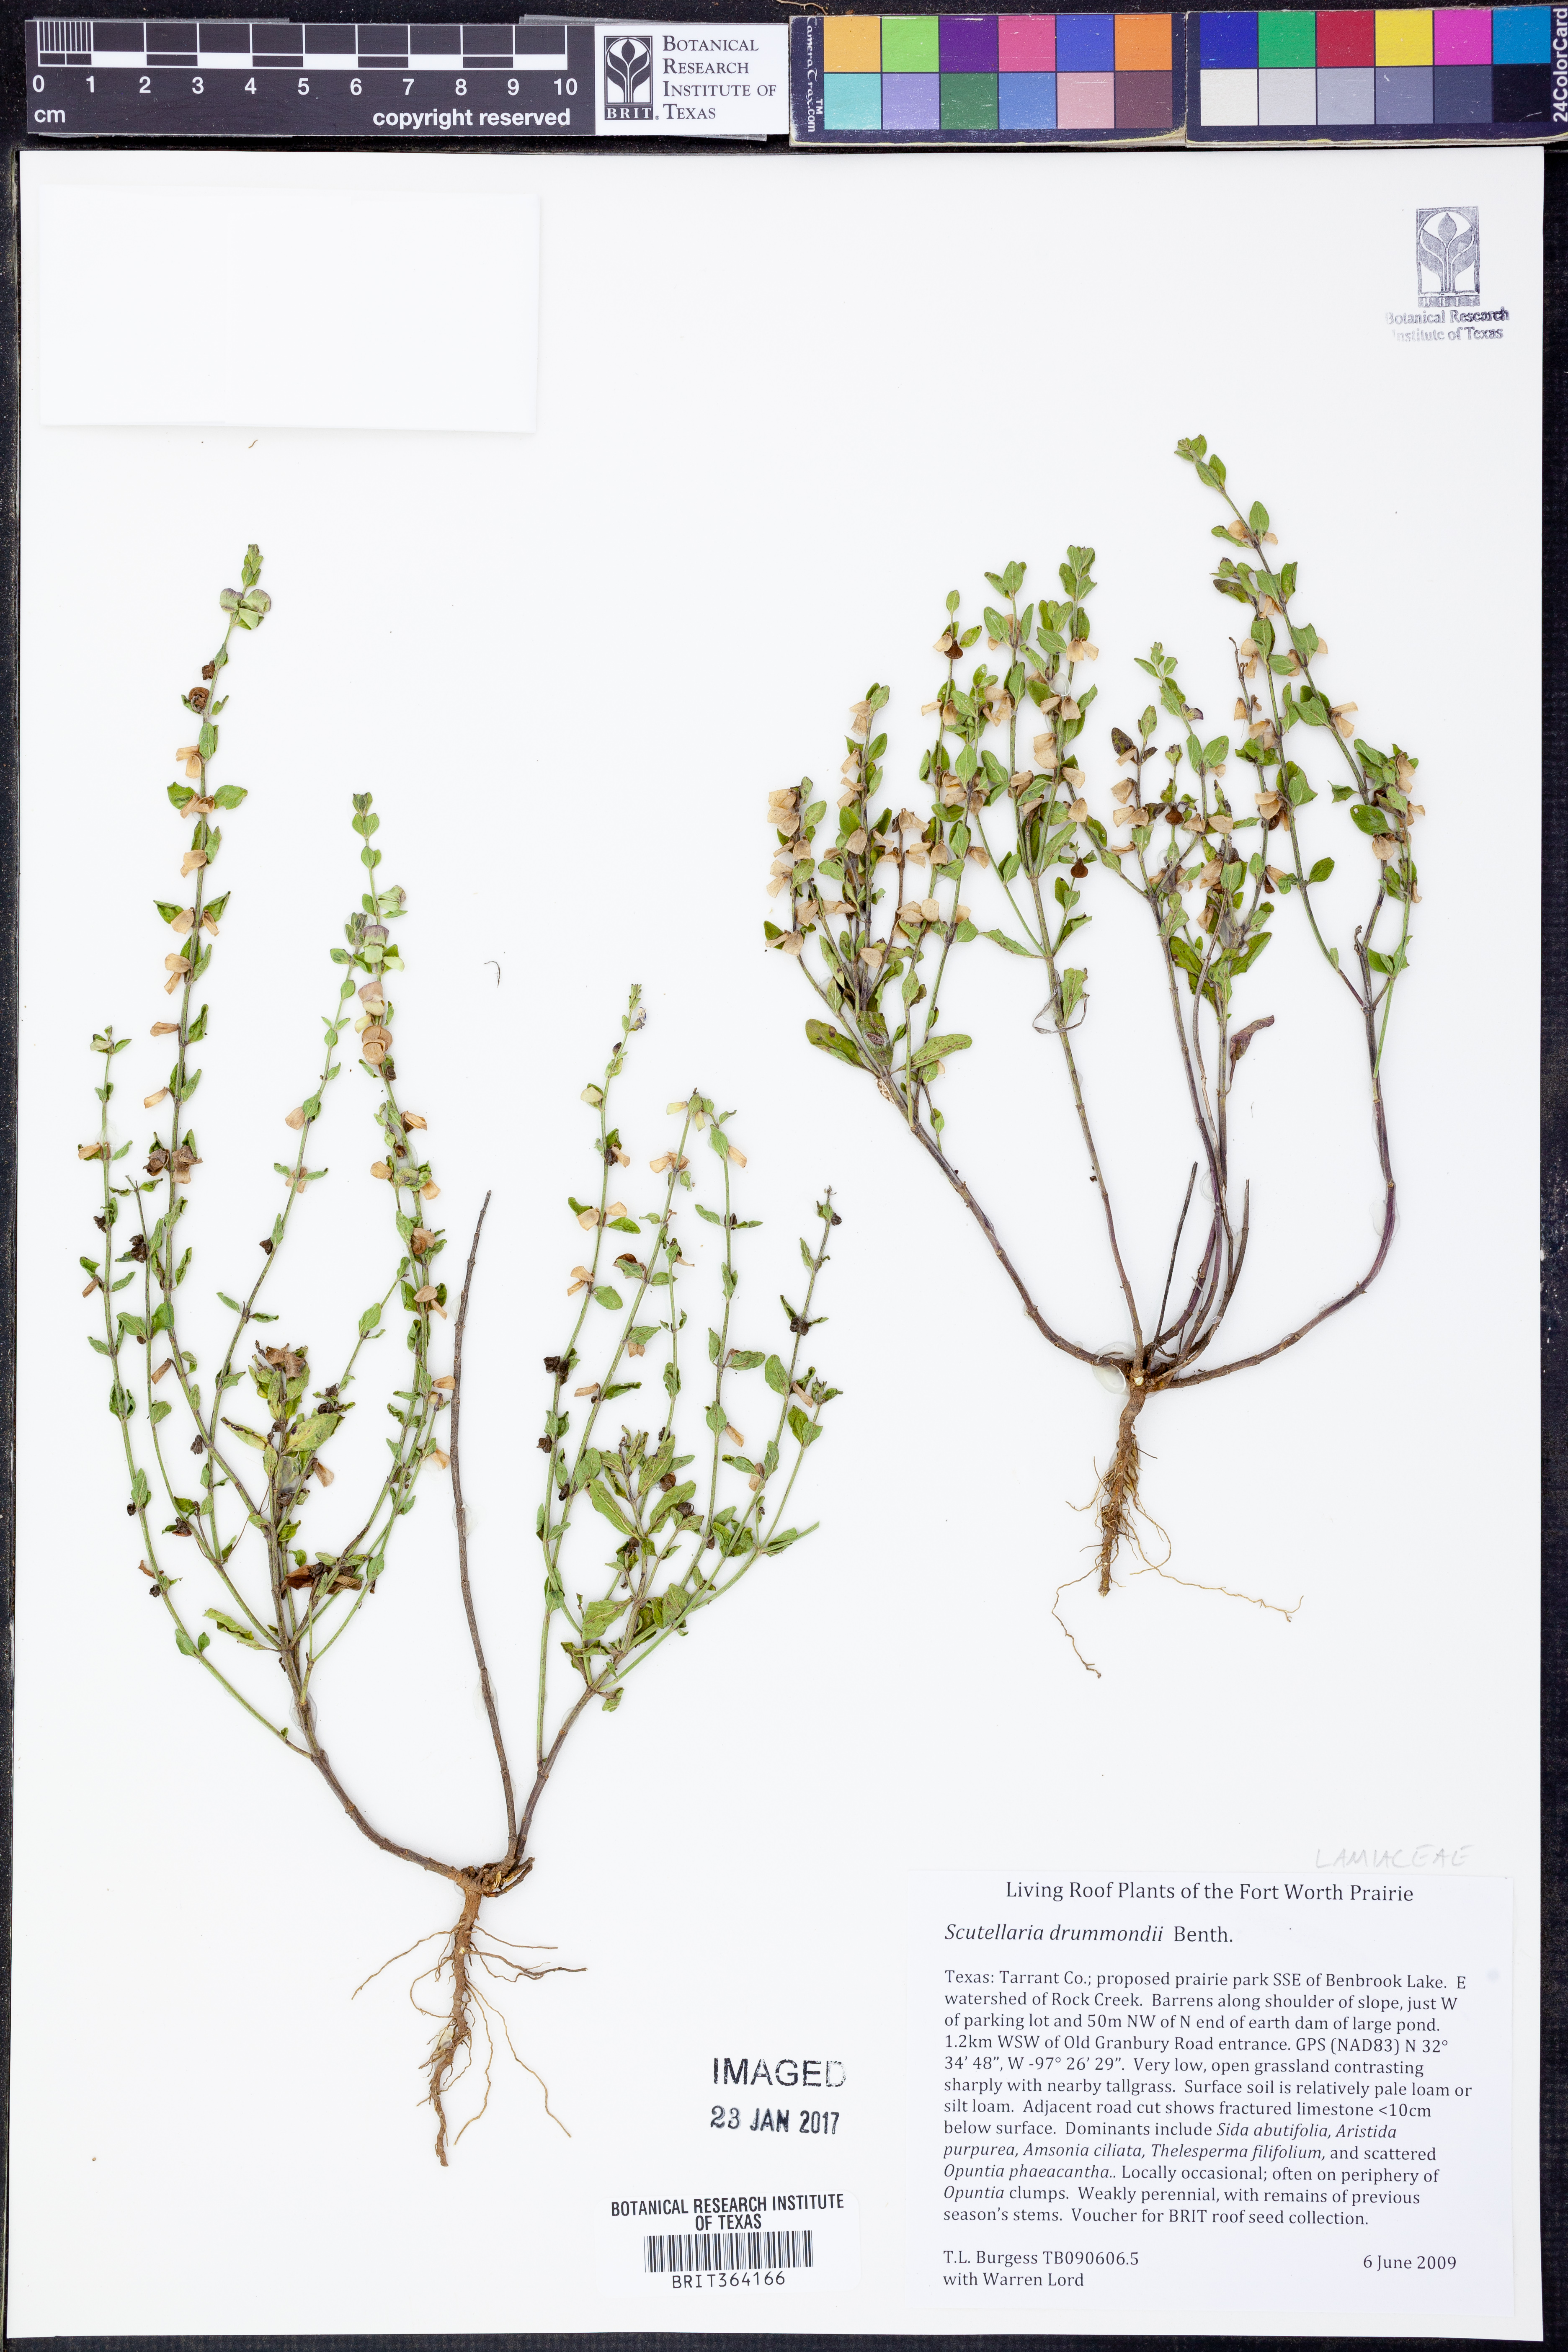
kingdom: Plantae
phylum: Tracheophyta
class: Magnoliopsida
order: Lamiales
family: Lamiaceae
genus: Scutellaria
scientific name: Scutellaria drummondii
